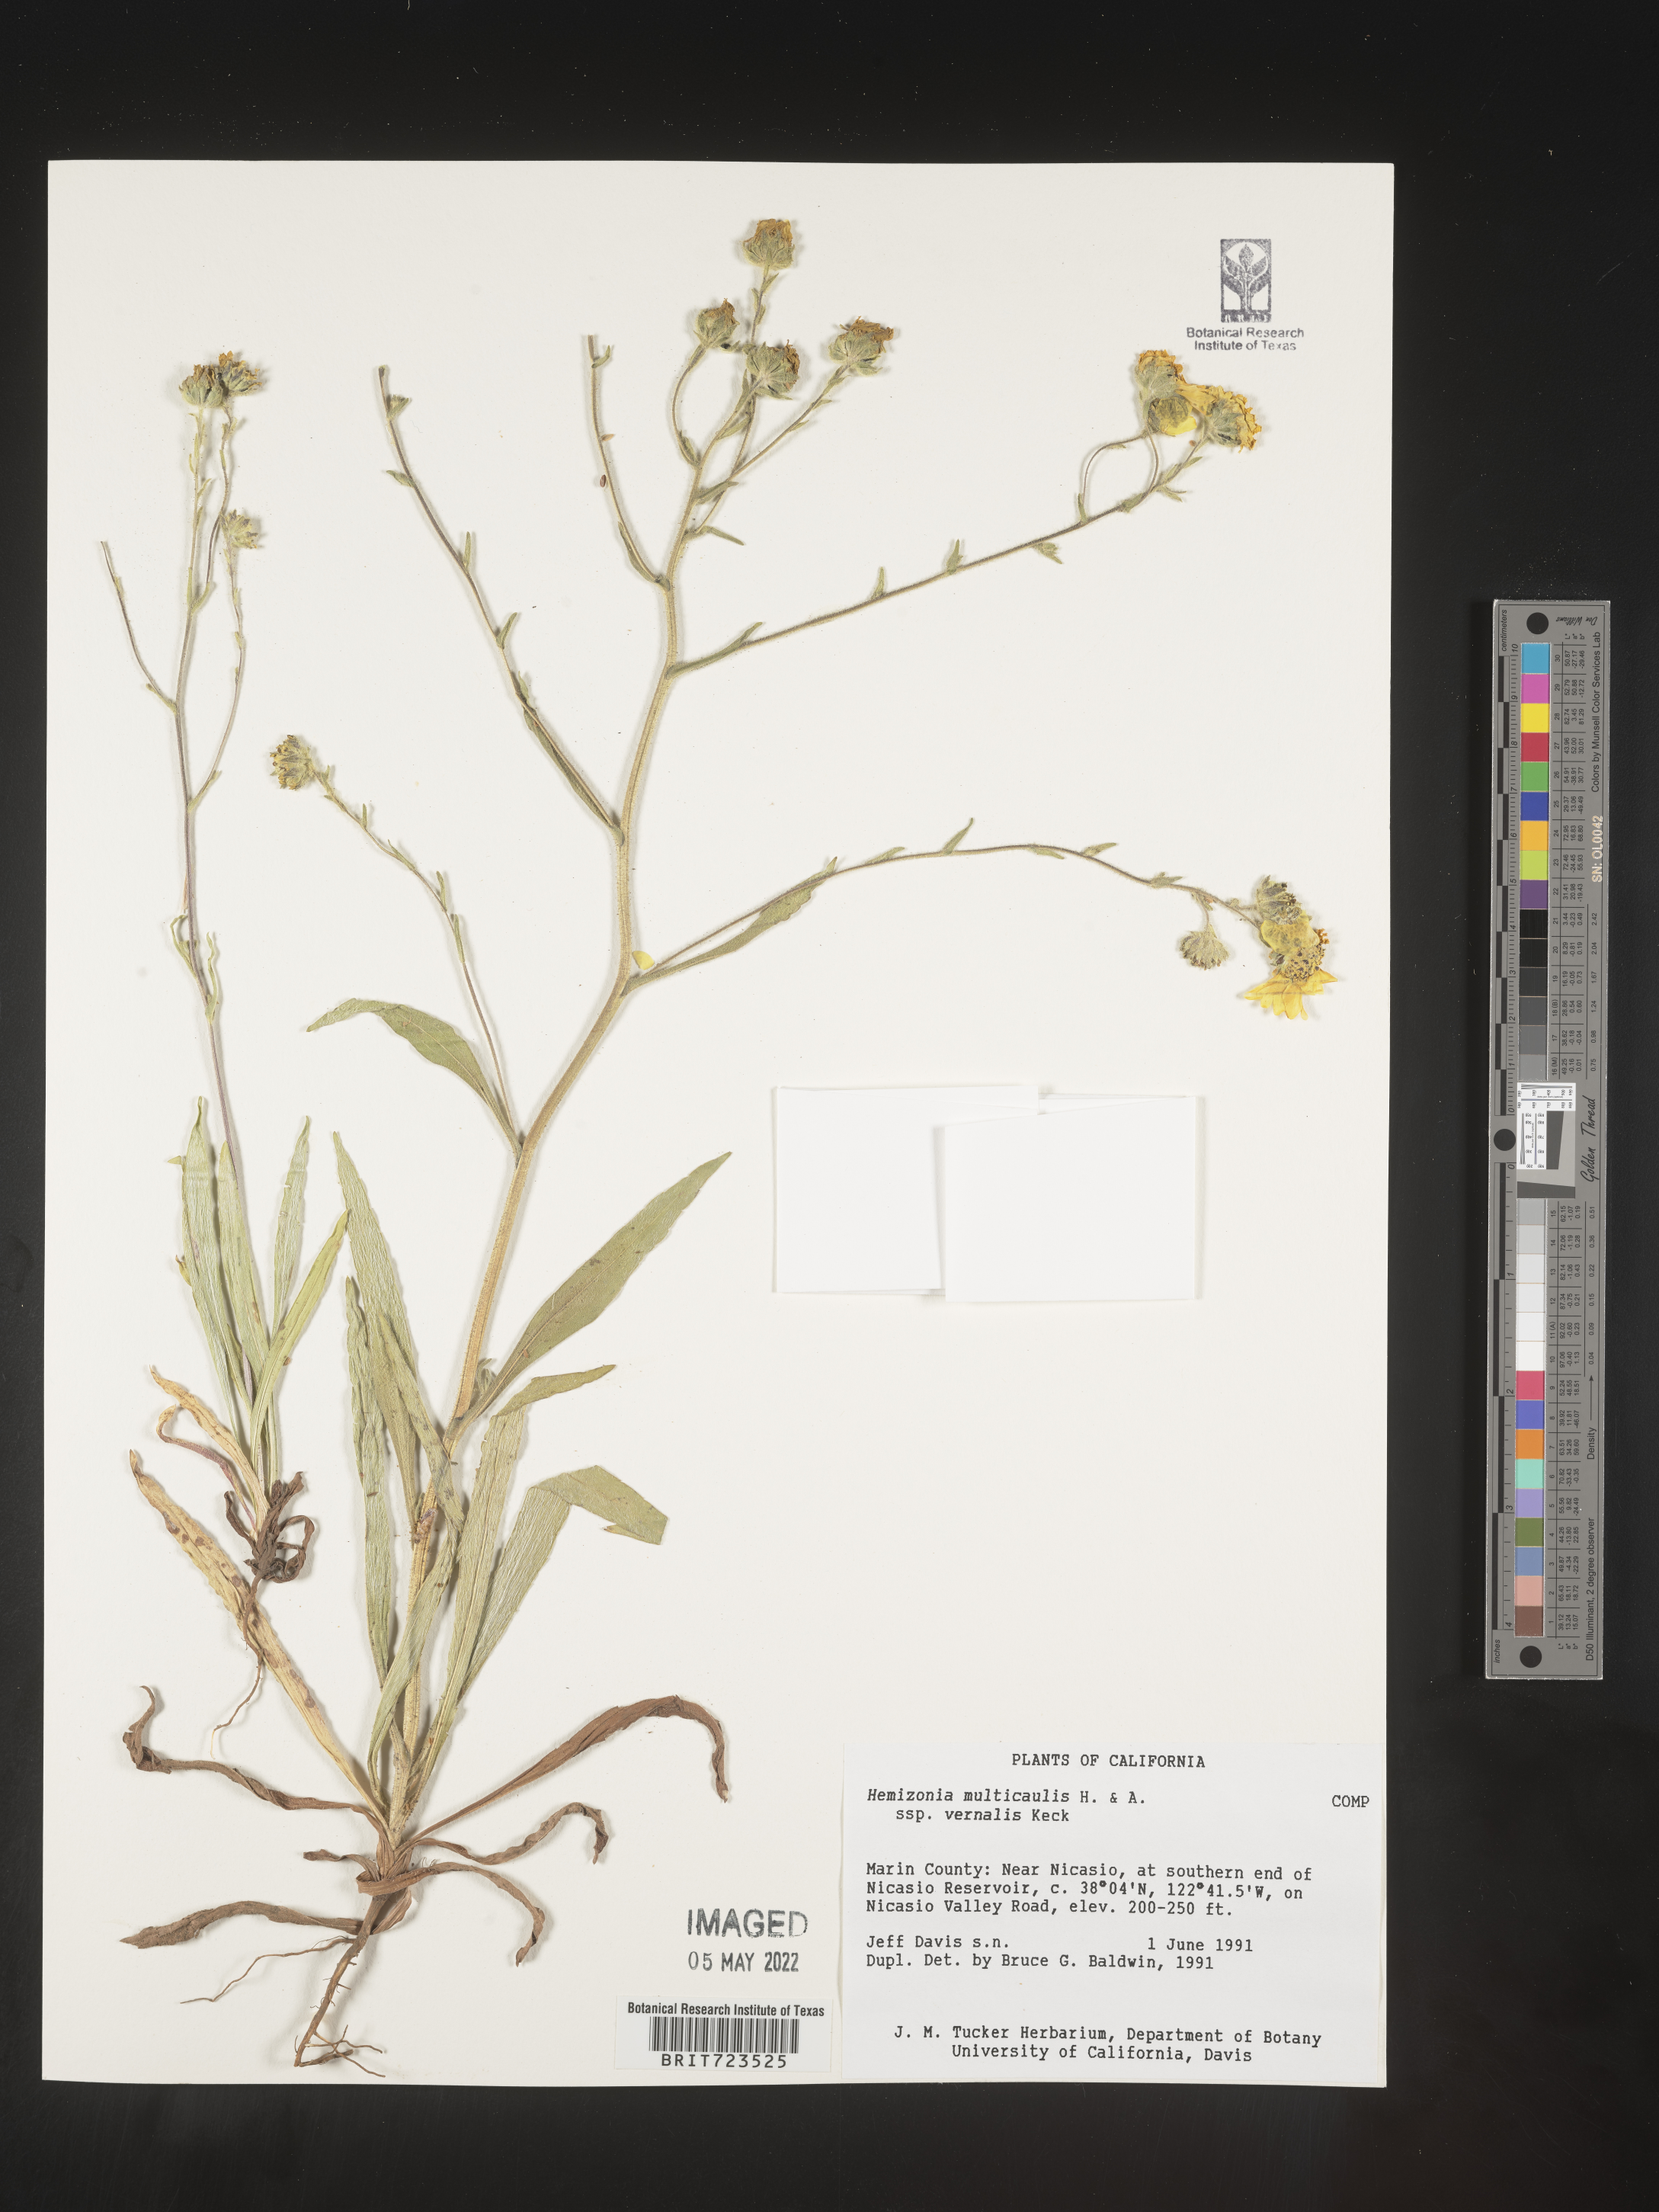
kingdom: Plantae
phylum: Tracheophyta
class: Magnoliopsida
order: Asterales
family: Asteraceae
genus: Hemizonia
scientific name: Hemizonia
